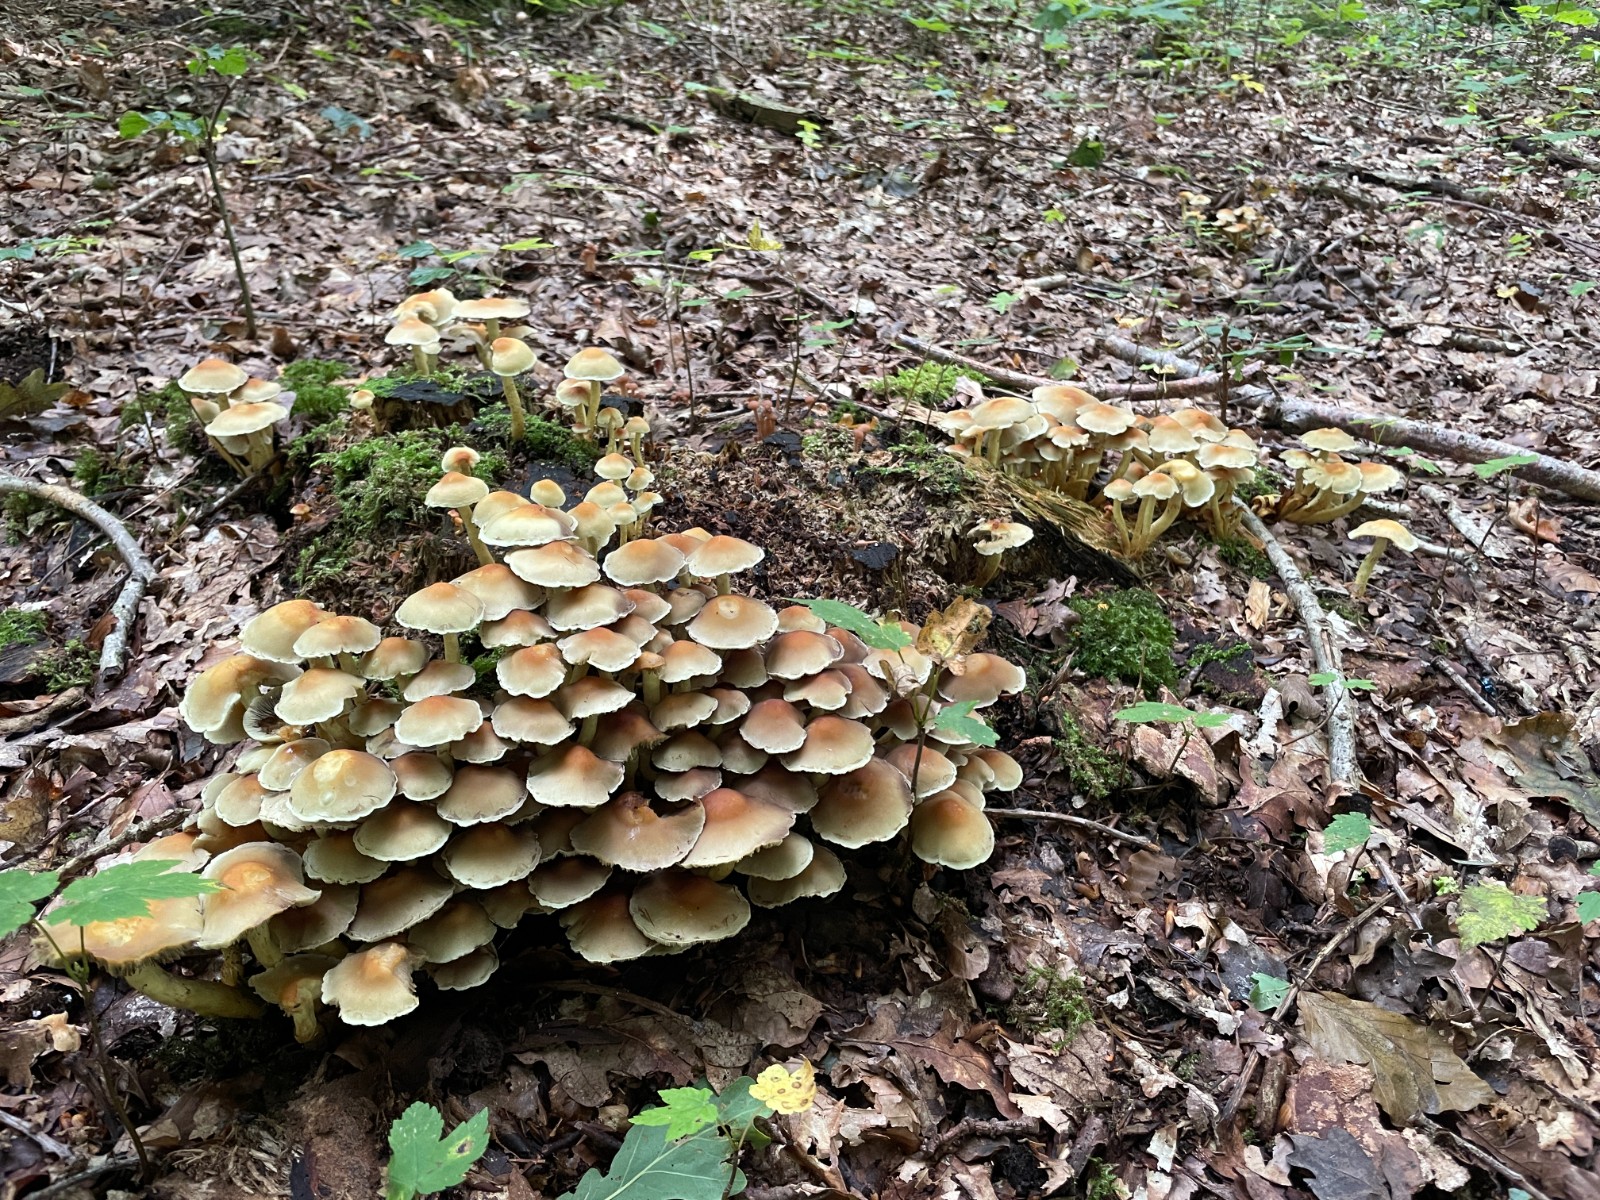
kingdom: Fungi
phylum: Basidiomycota
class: Agaricomycetes
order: Agaricales
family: Strophariaceae
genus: Hypholoma
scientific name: Hypholoma fasciculare
